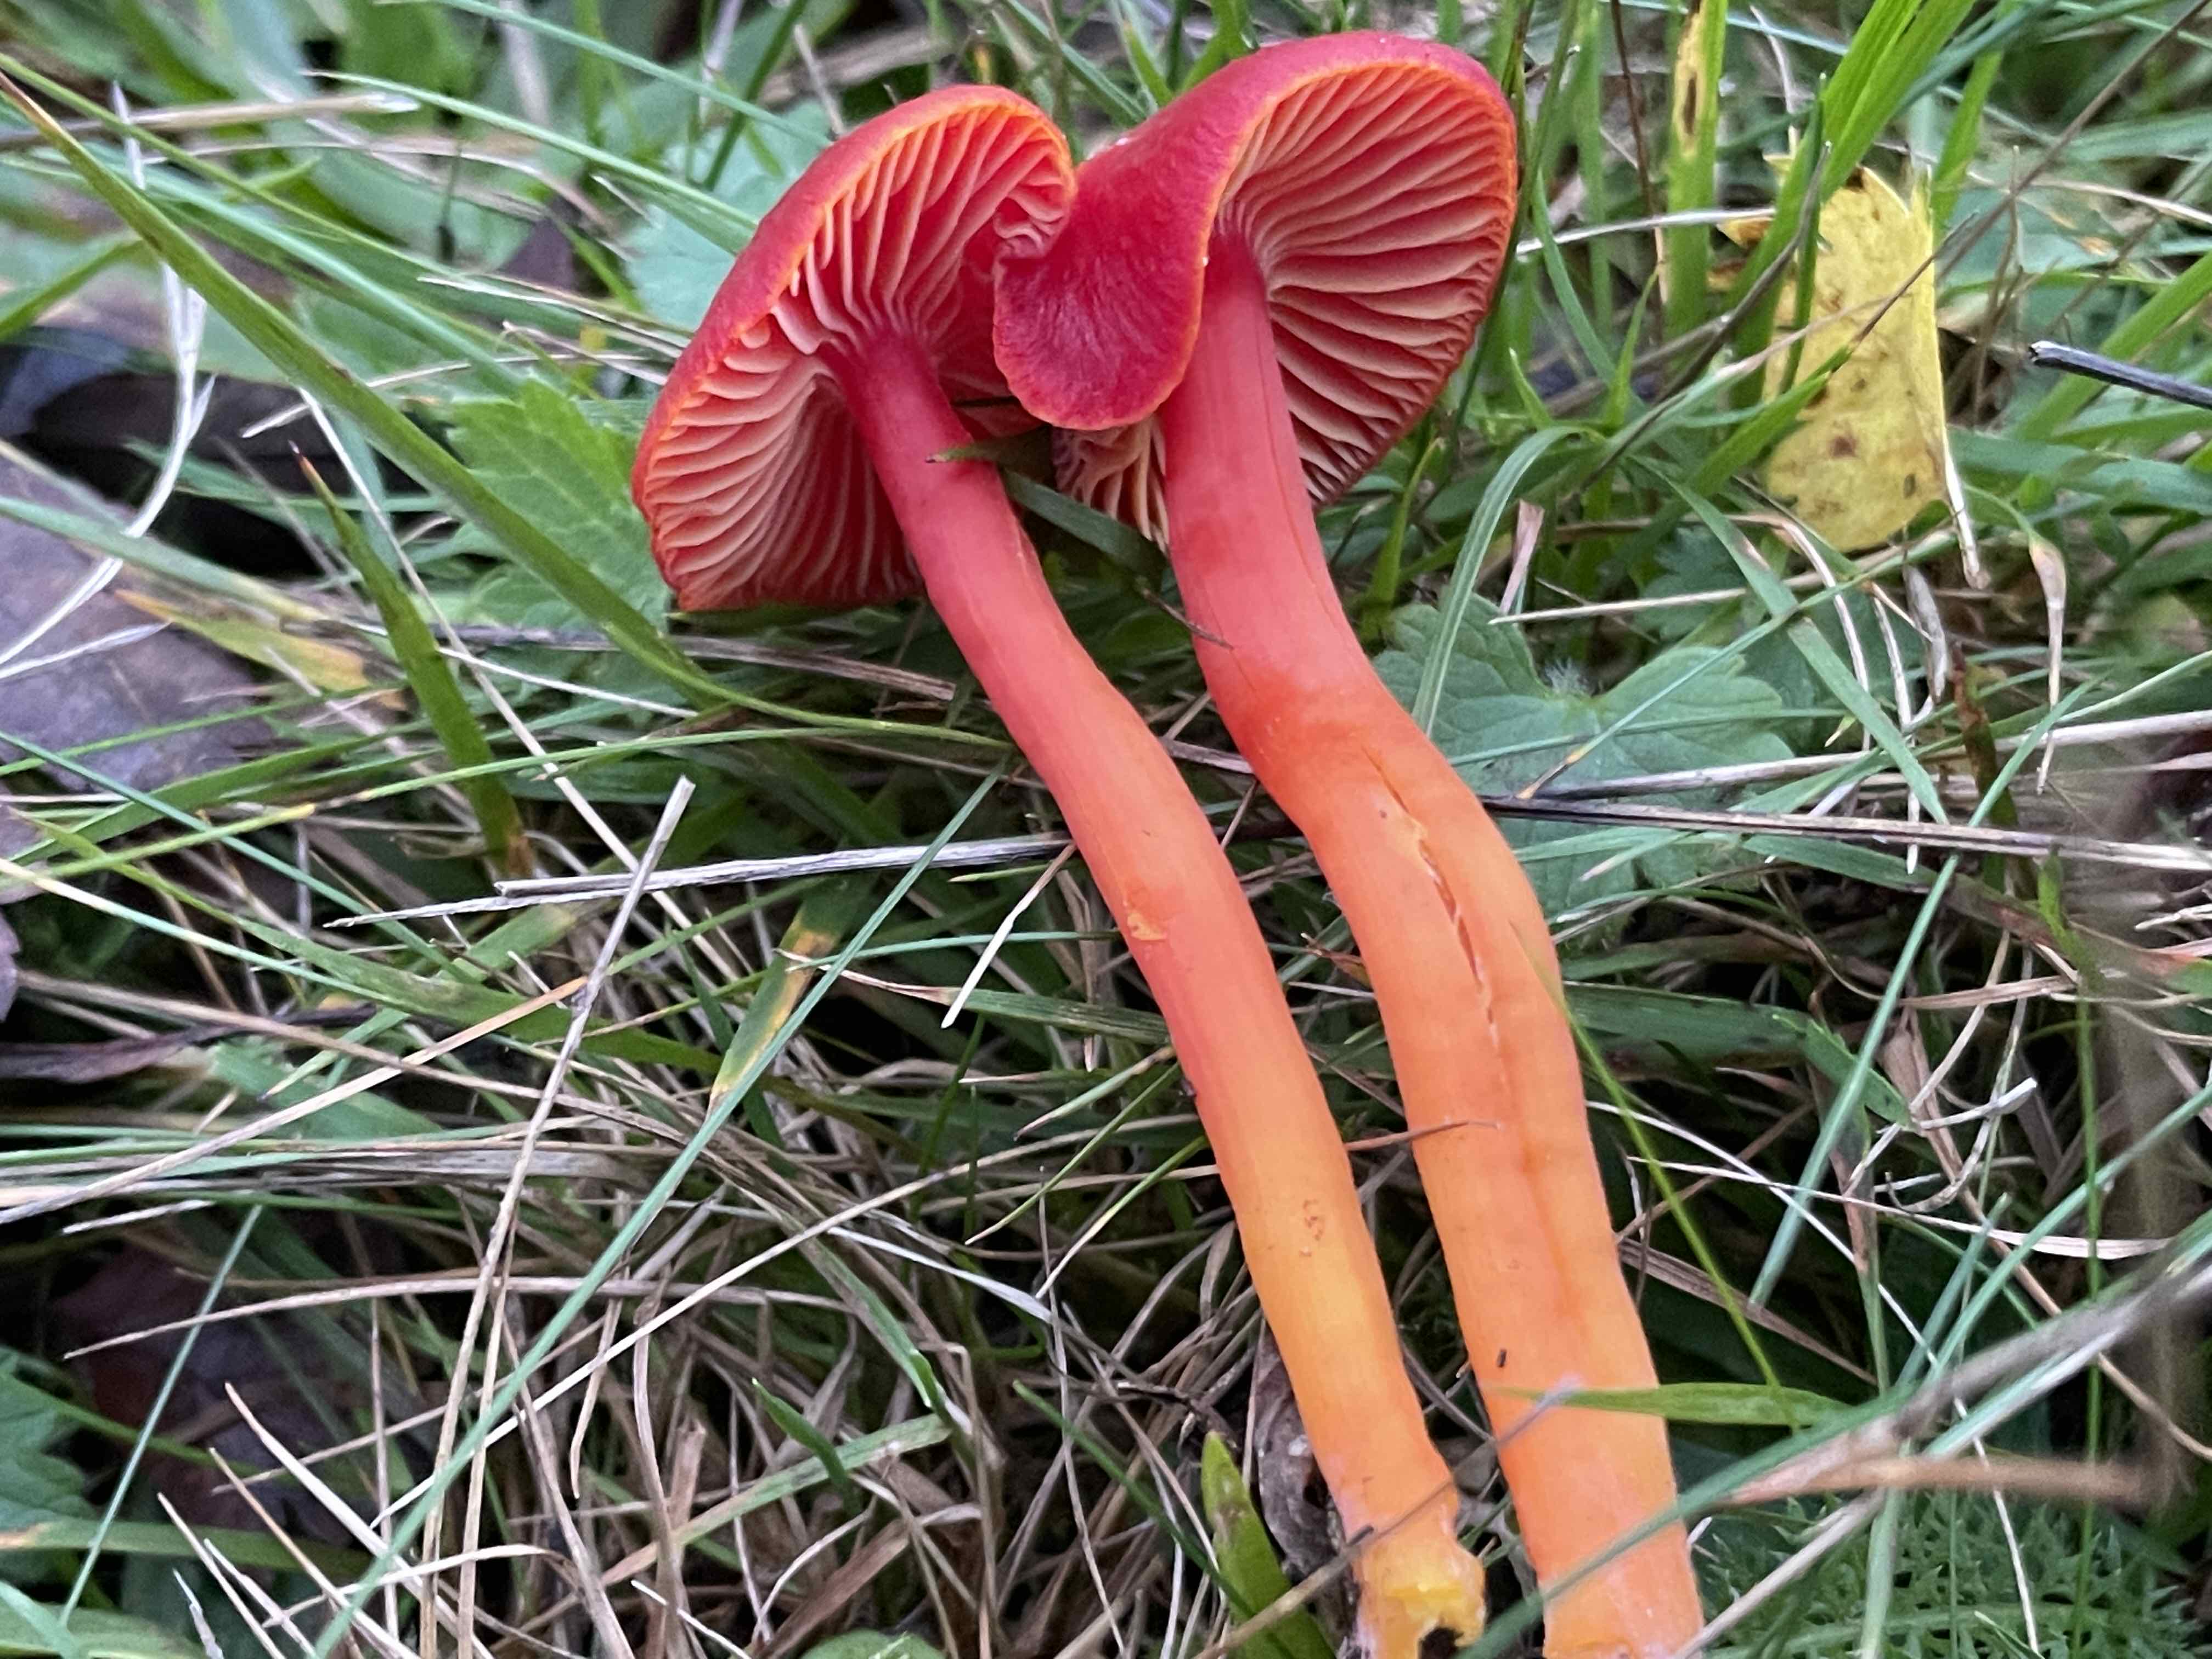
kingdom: Fungi
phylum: Basidiomycota
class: Agaricomycetes
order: Agaricales
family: Hygrophoraceae
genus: Hygrocybe
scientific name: Hygrocybe coccinea
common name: cinnober-vokshat
